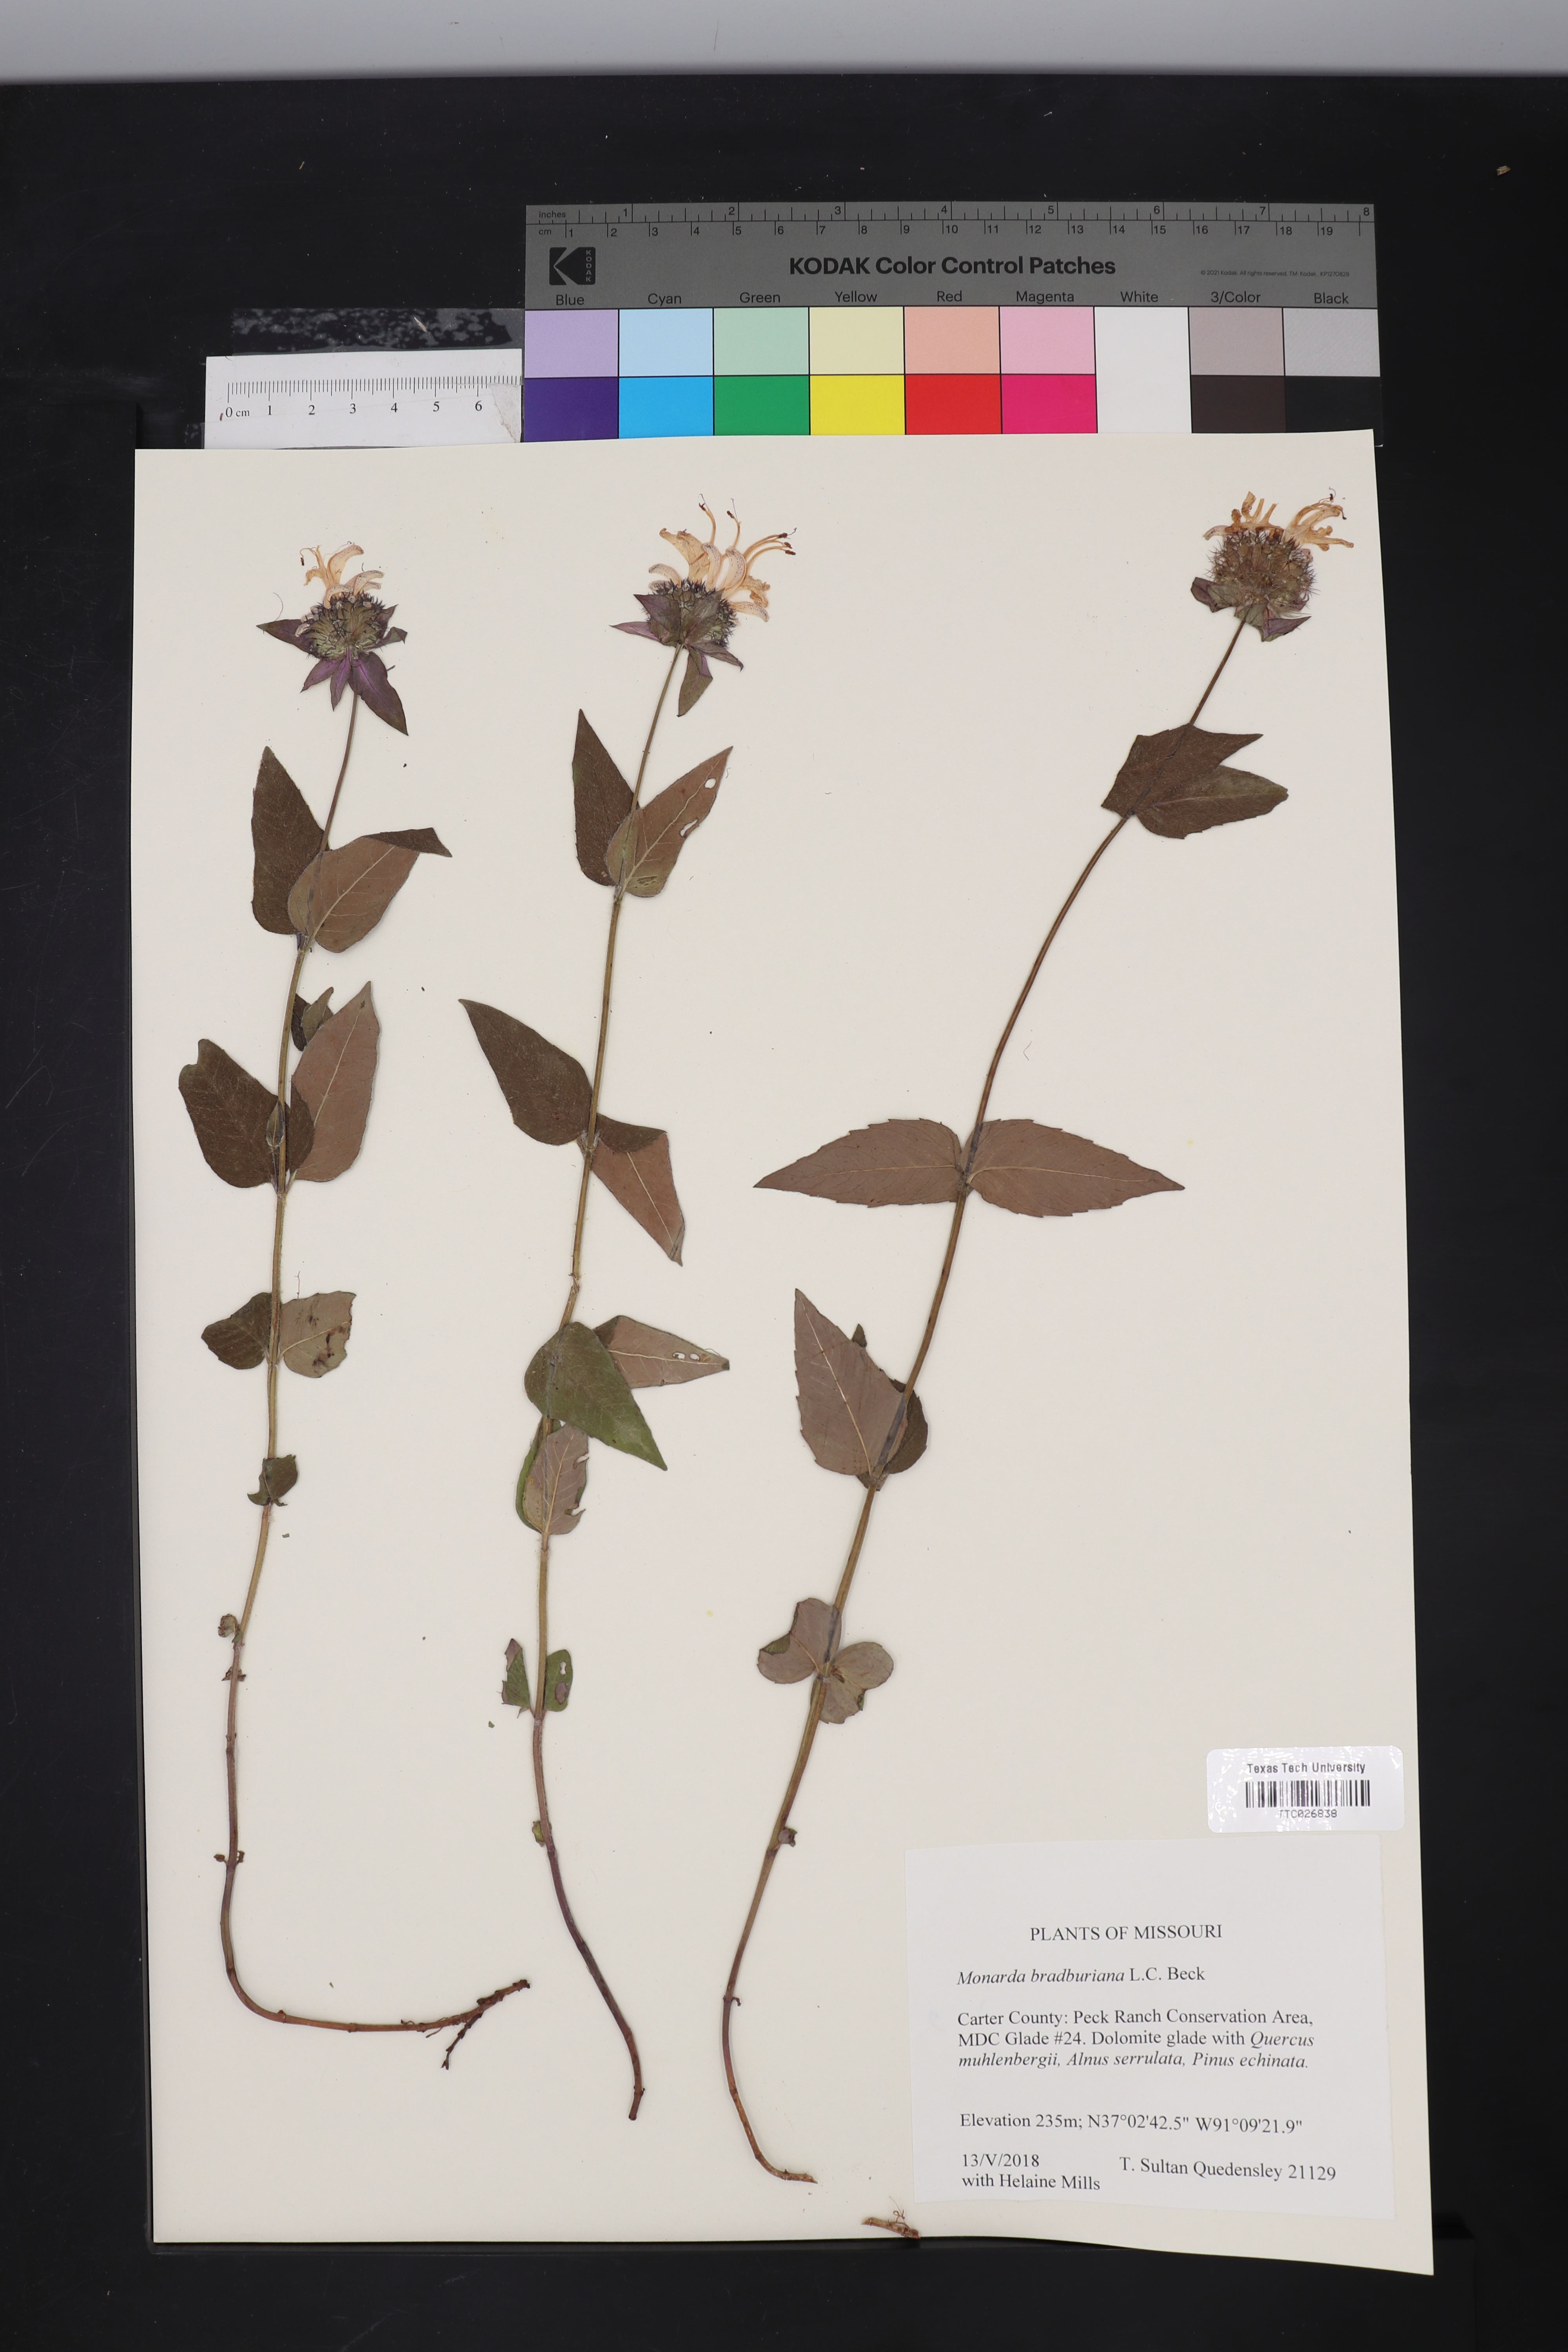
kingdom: Plantae
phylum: Tracheophyta
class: Magnoliopsida
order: Lamiales
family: Lamiaceae
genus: Monarda
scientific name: Monarda bradburiana
